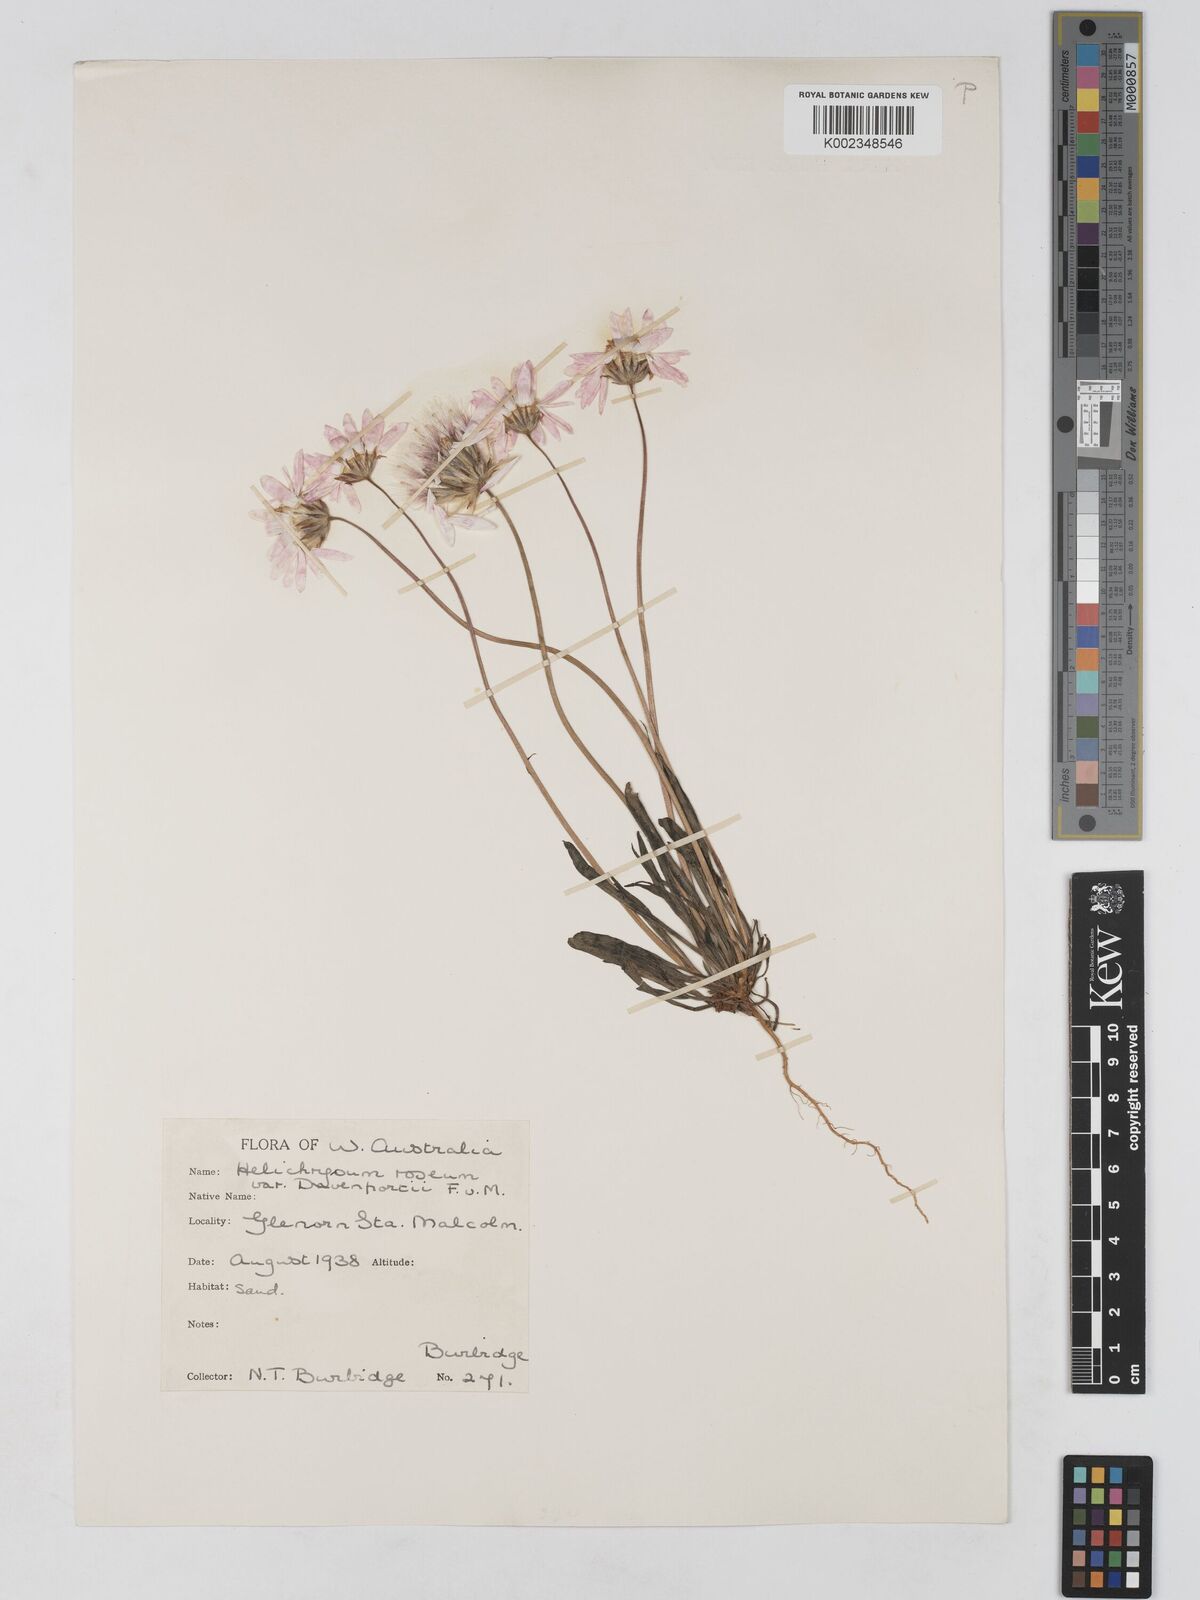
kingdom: Plantae
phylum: Tracheophyta
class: Magnoliopsida
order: Asterales
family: Asteraceae
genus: Lawrencella
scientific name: Lawrencella davenportii
